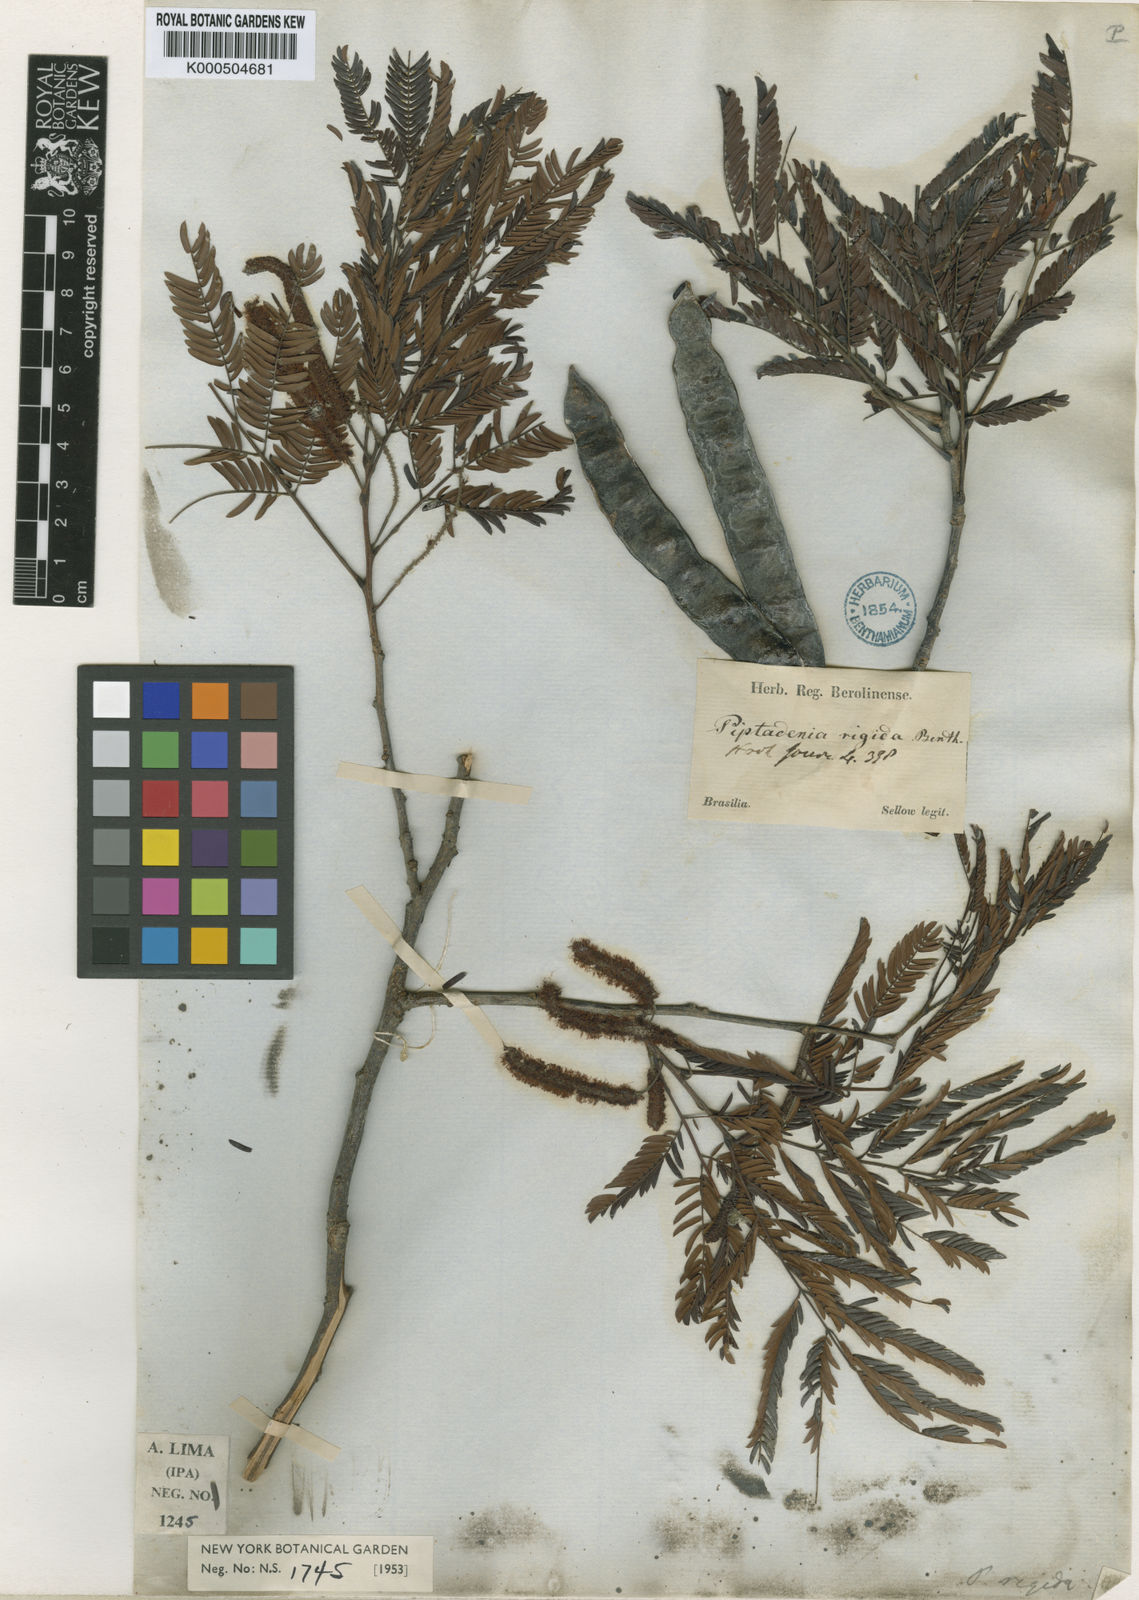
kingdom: Plantae
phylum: Tracheophyta
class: Magnoliopsida
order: Fabales
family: Fabaceae
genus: Parapiptadenia
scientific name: Parapiptadenia rigida
